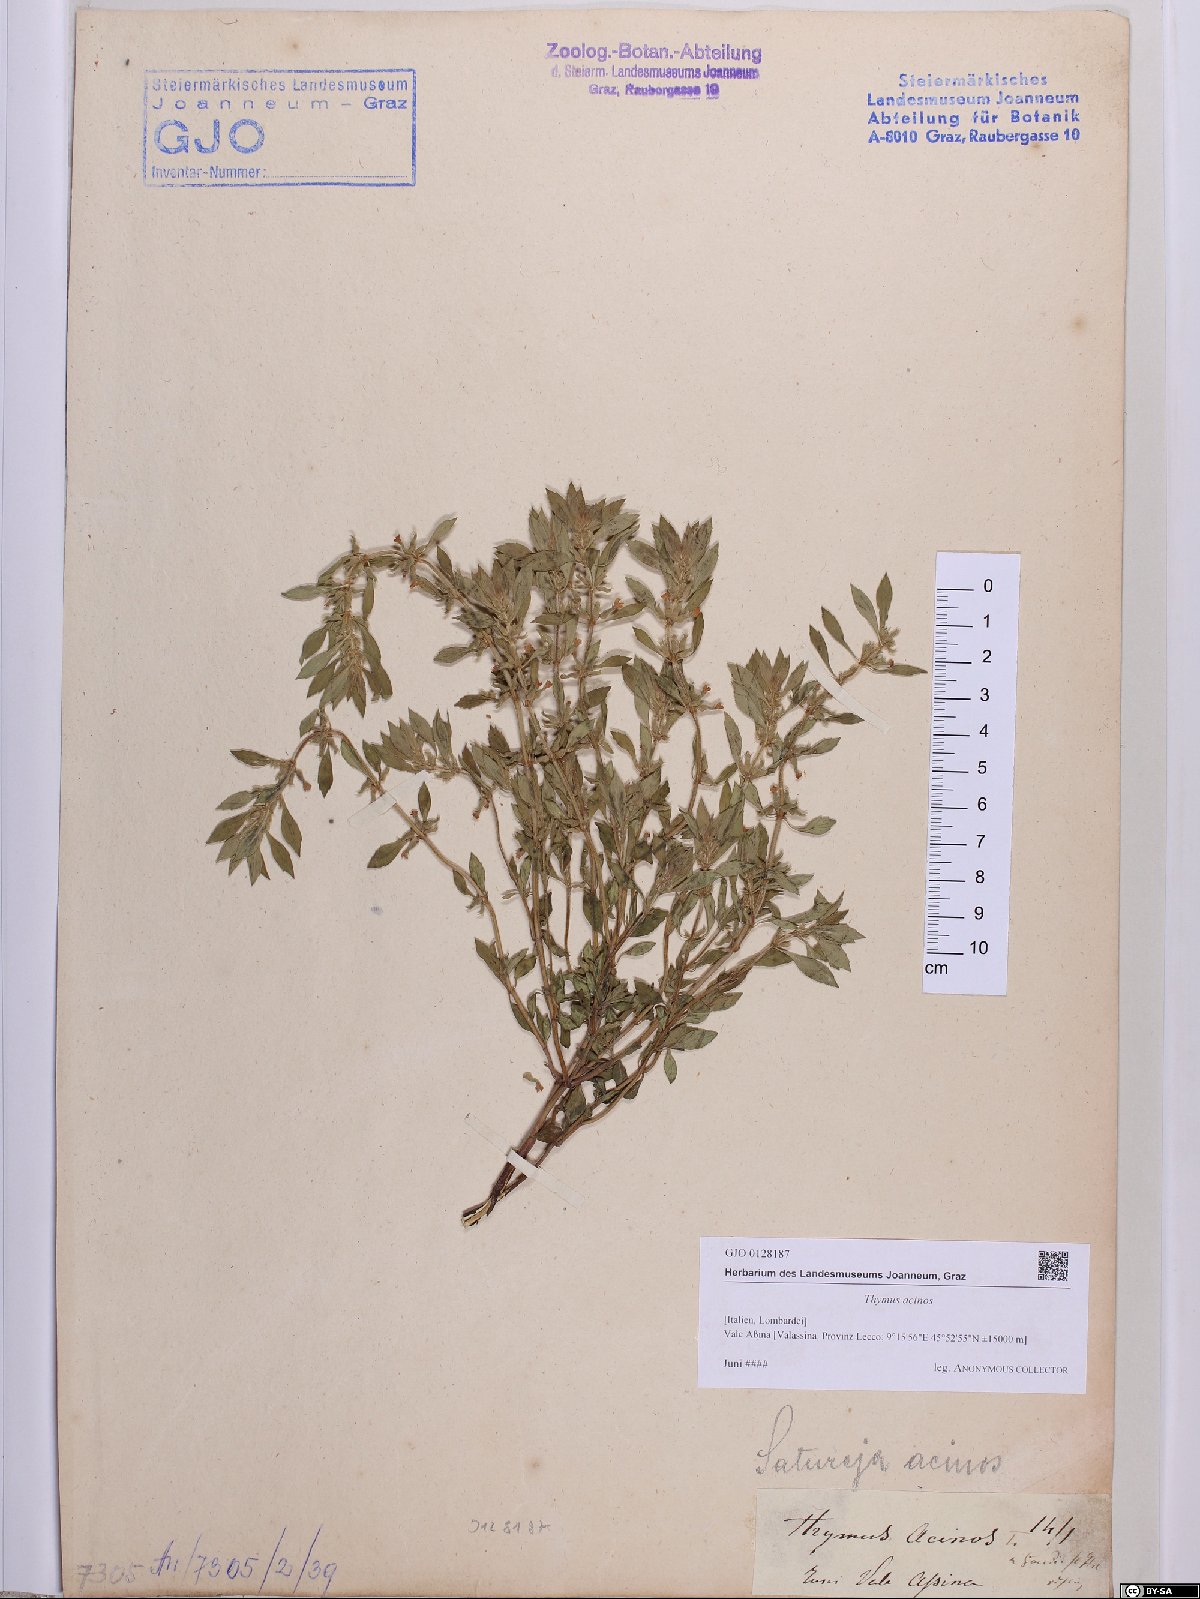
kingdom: Plantae
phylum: Tracheophyta
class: Magnoliopsida
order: Lamiales
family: Lamiaceae
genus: Clinopodium
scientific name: Clinopodium acinos
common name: Basil thyme
